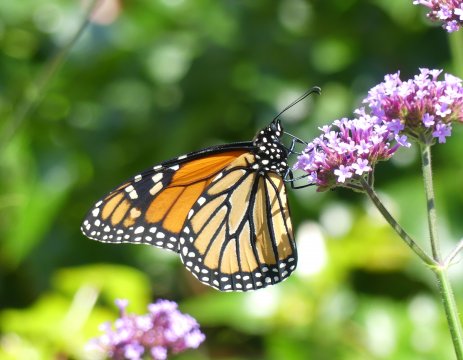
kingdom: Animalia
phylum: Arthropoda
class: Insecta
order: Lepidoptera
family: Nymphalidae
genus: Danaus
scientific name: Danaus plexippus
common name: Monarch
